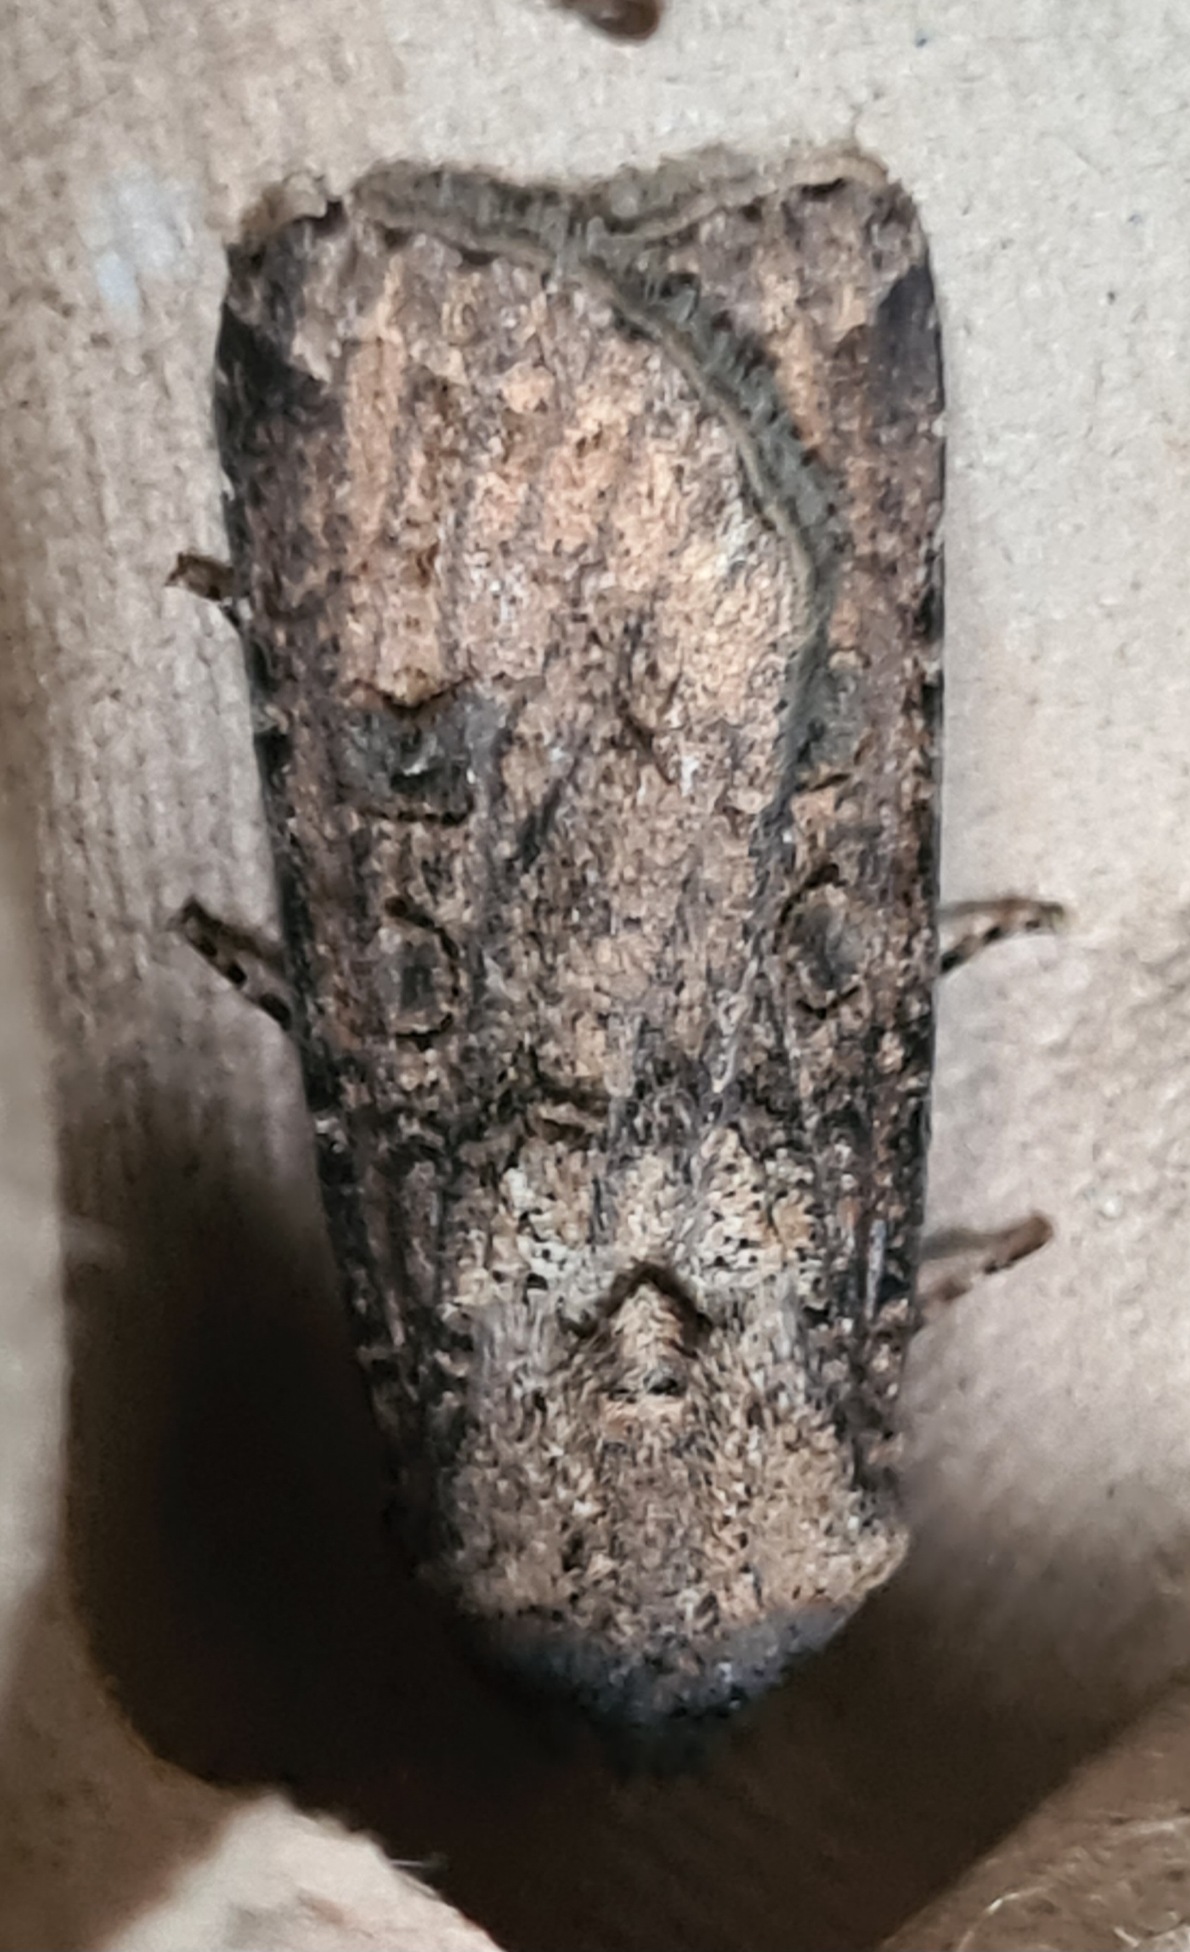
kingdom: Animalia
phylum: Arthropoda
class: Insecta
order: Lepidoptera
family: Noctuidae
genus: Agrotis
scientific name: Agrotis segetum
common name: Agerugle
